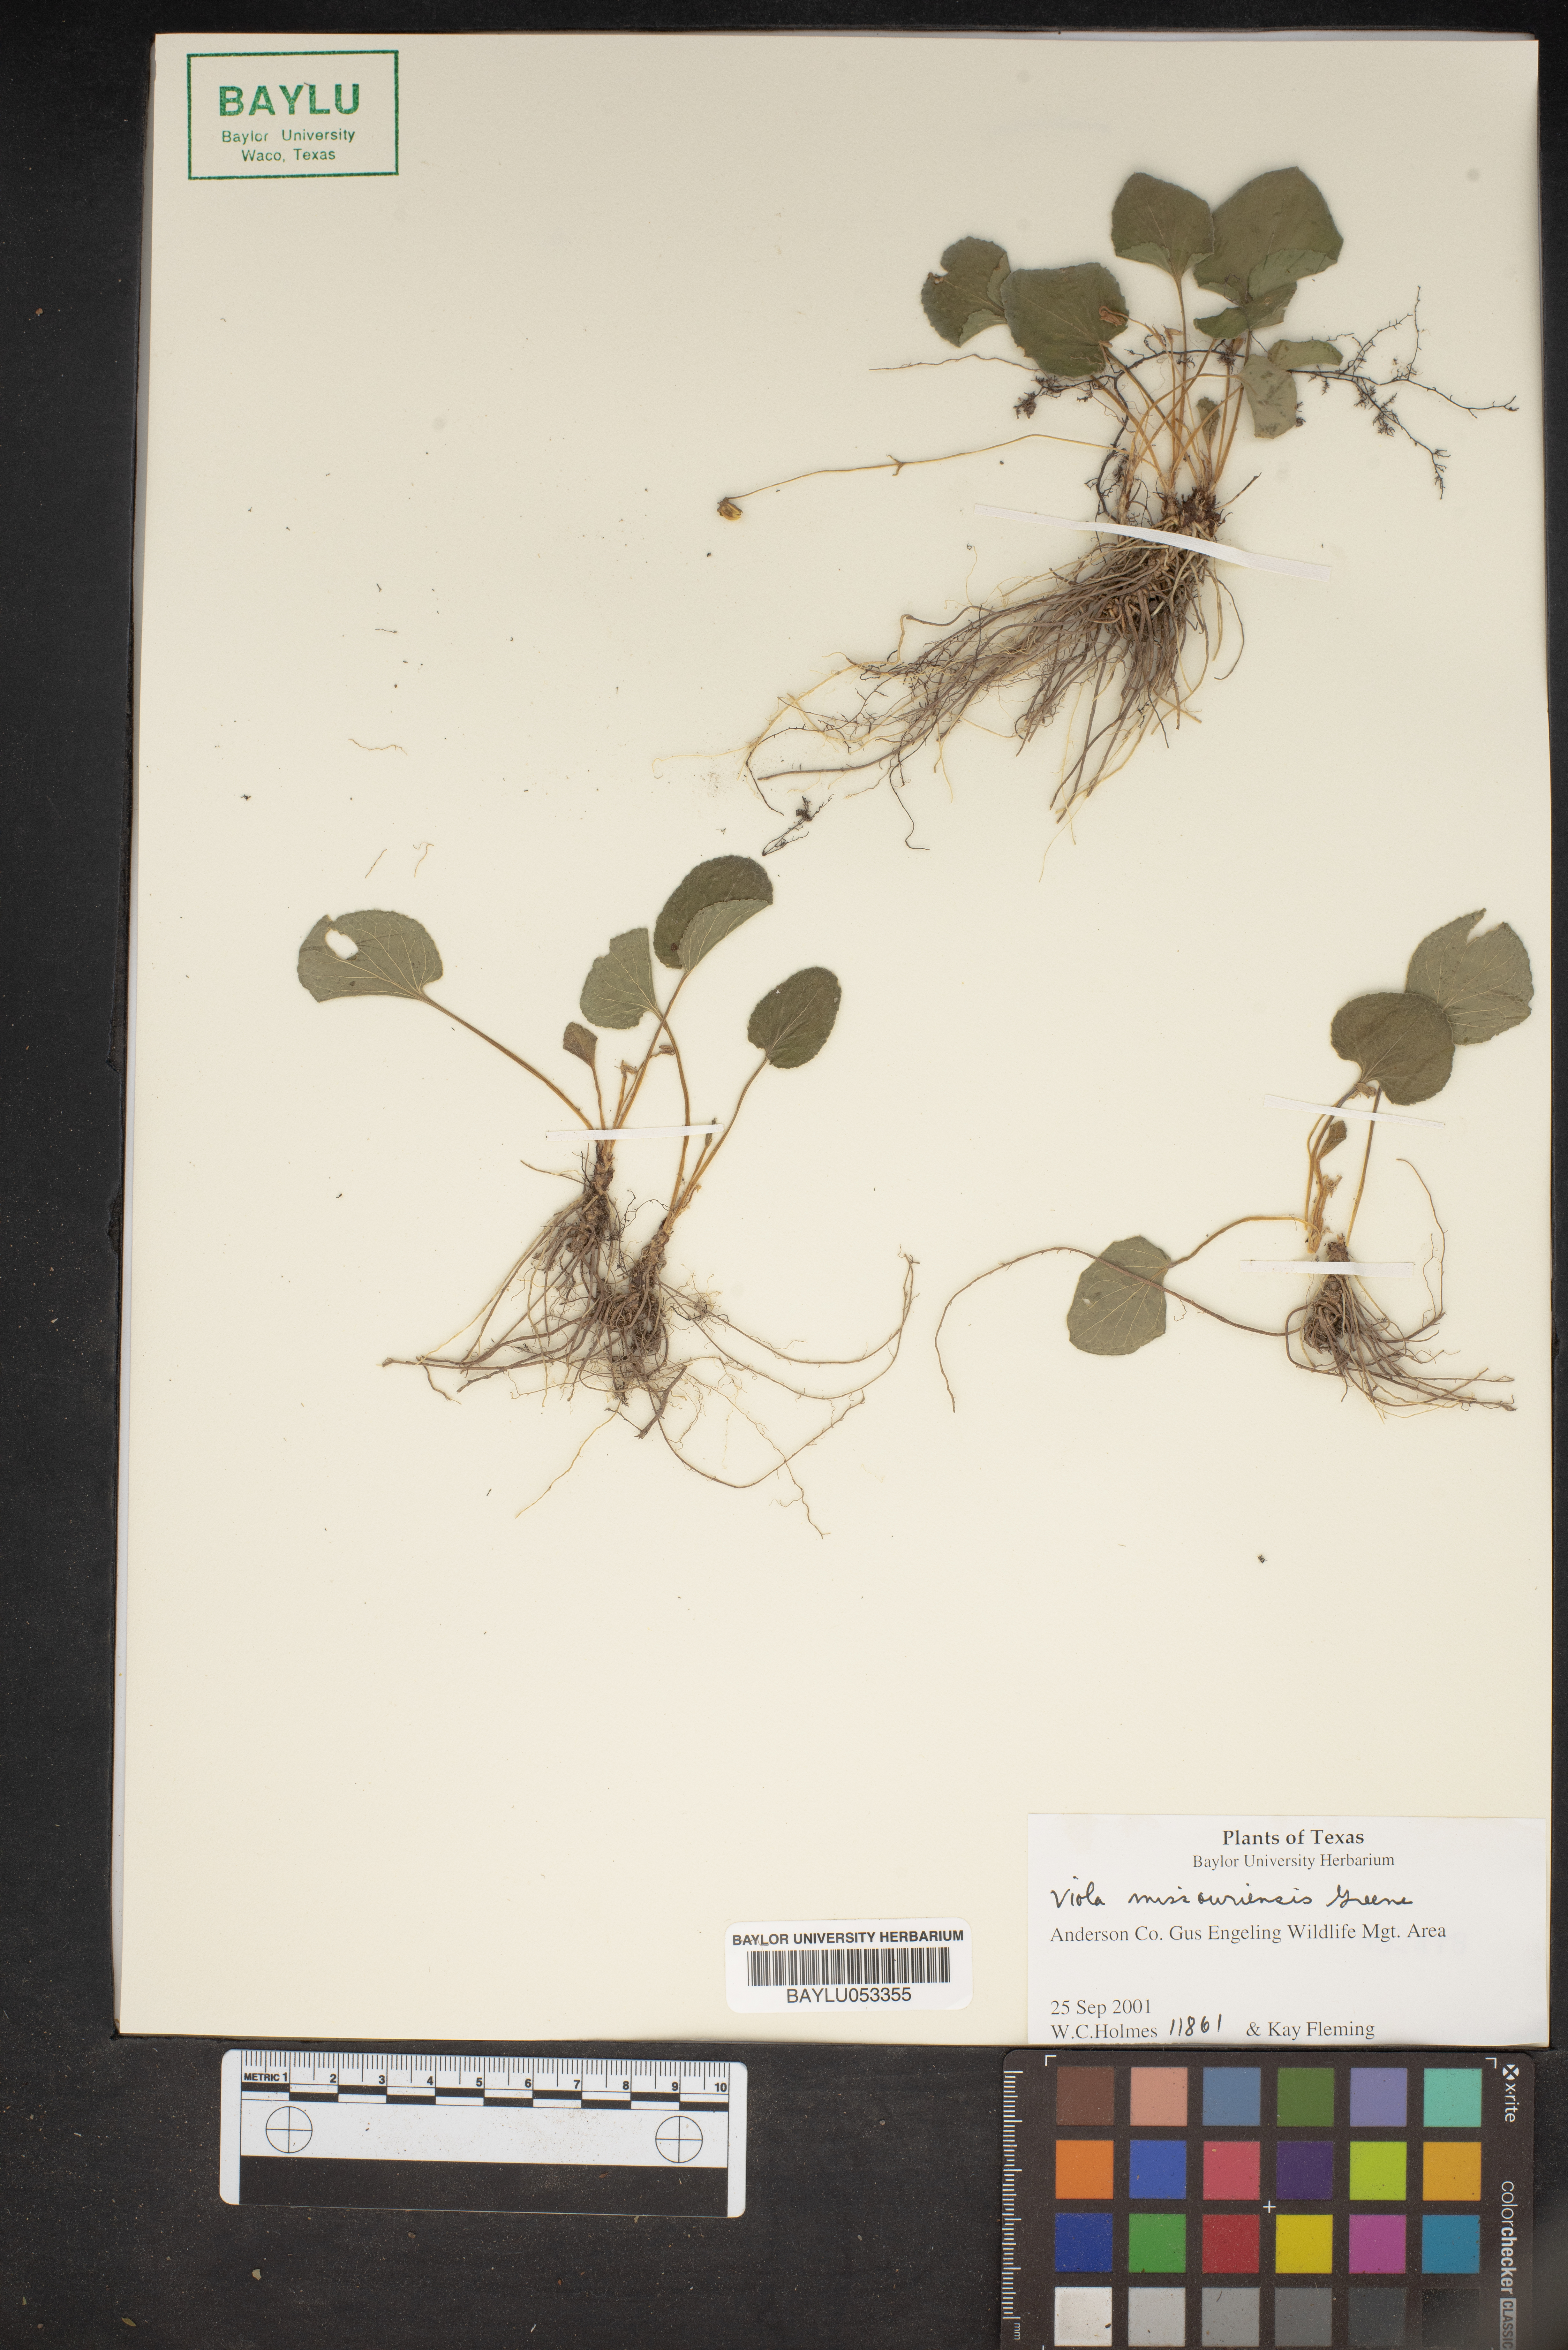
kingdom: Plantae
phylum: Tracheophyta
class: Magnoliopsida
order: Malpighiales
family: Violaceae
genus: Viola
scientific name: Viola missouriensis
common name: Missouri violet
